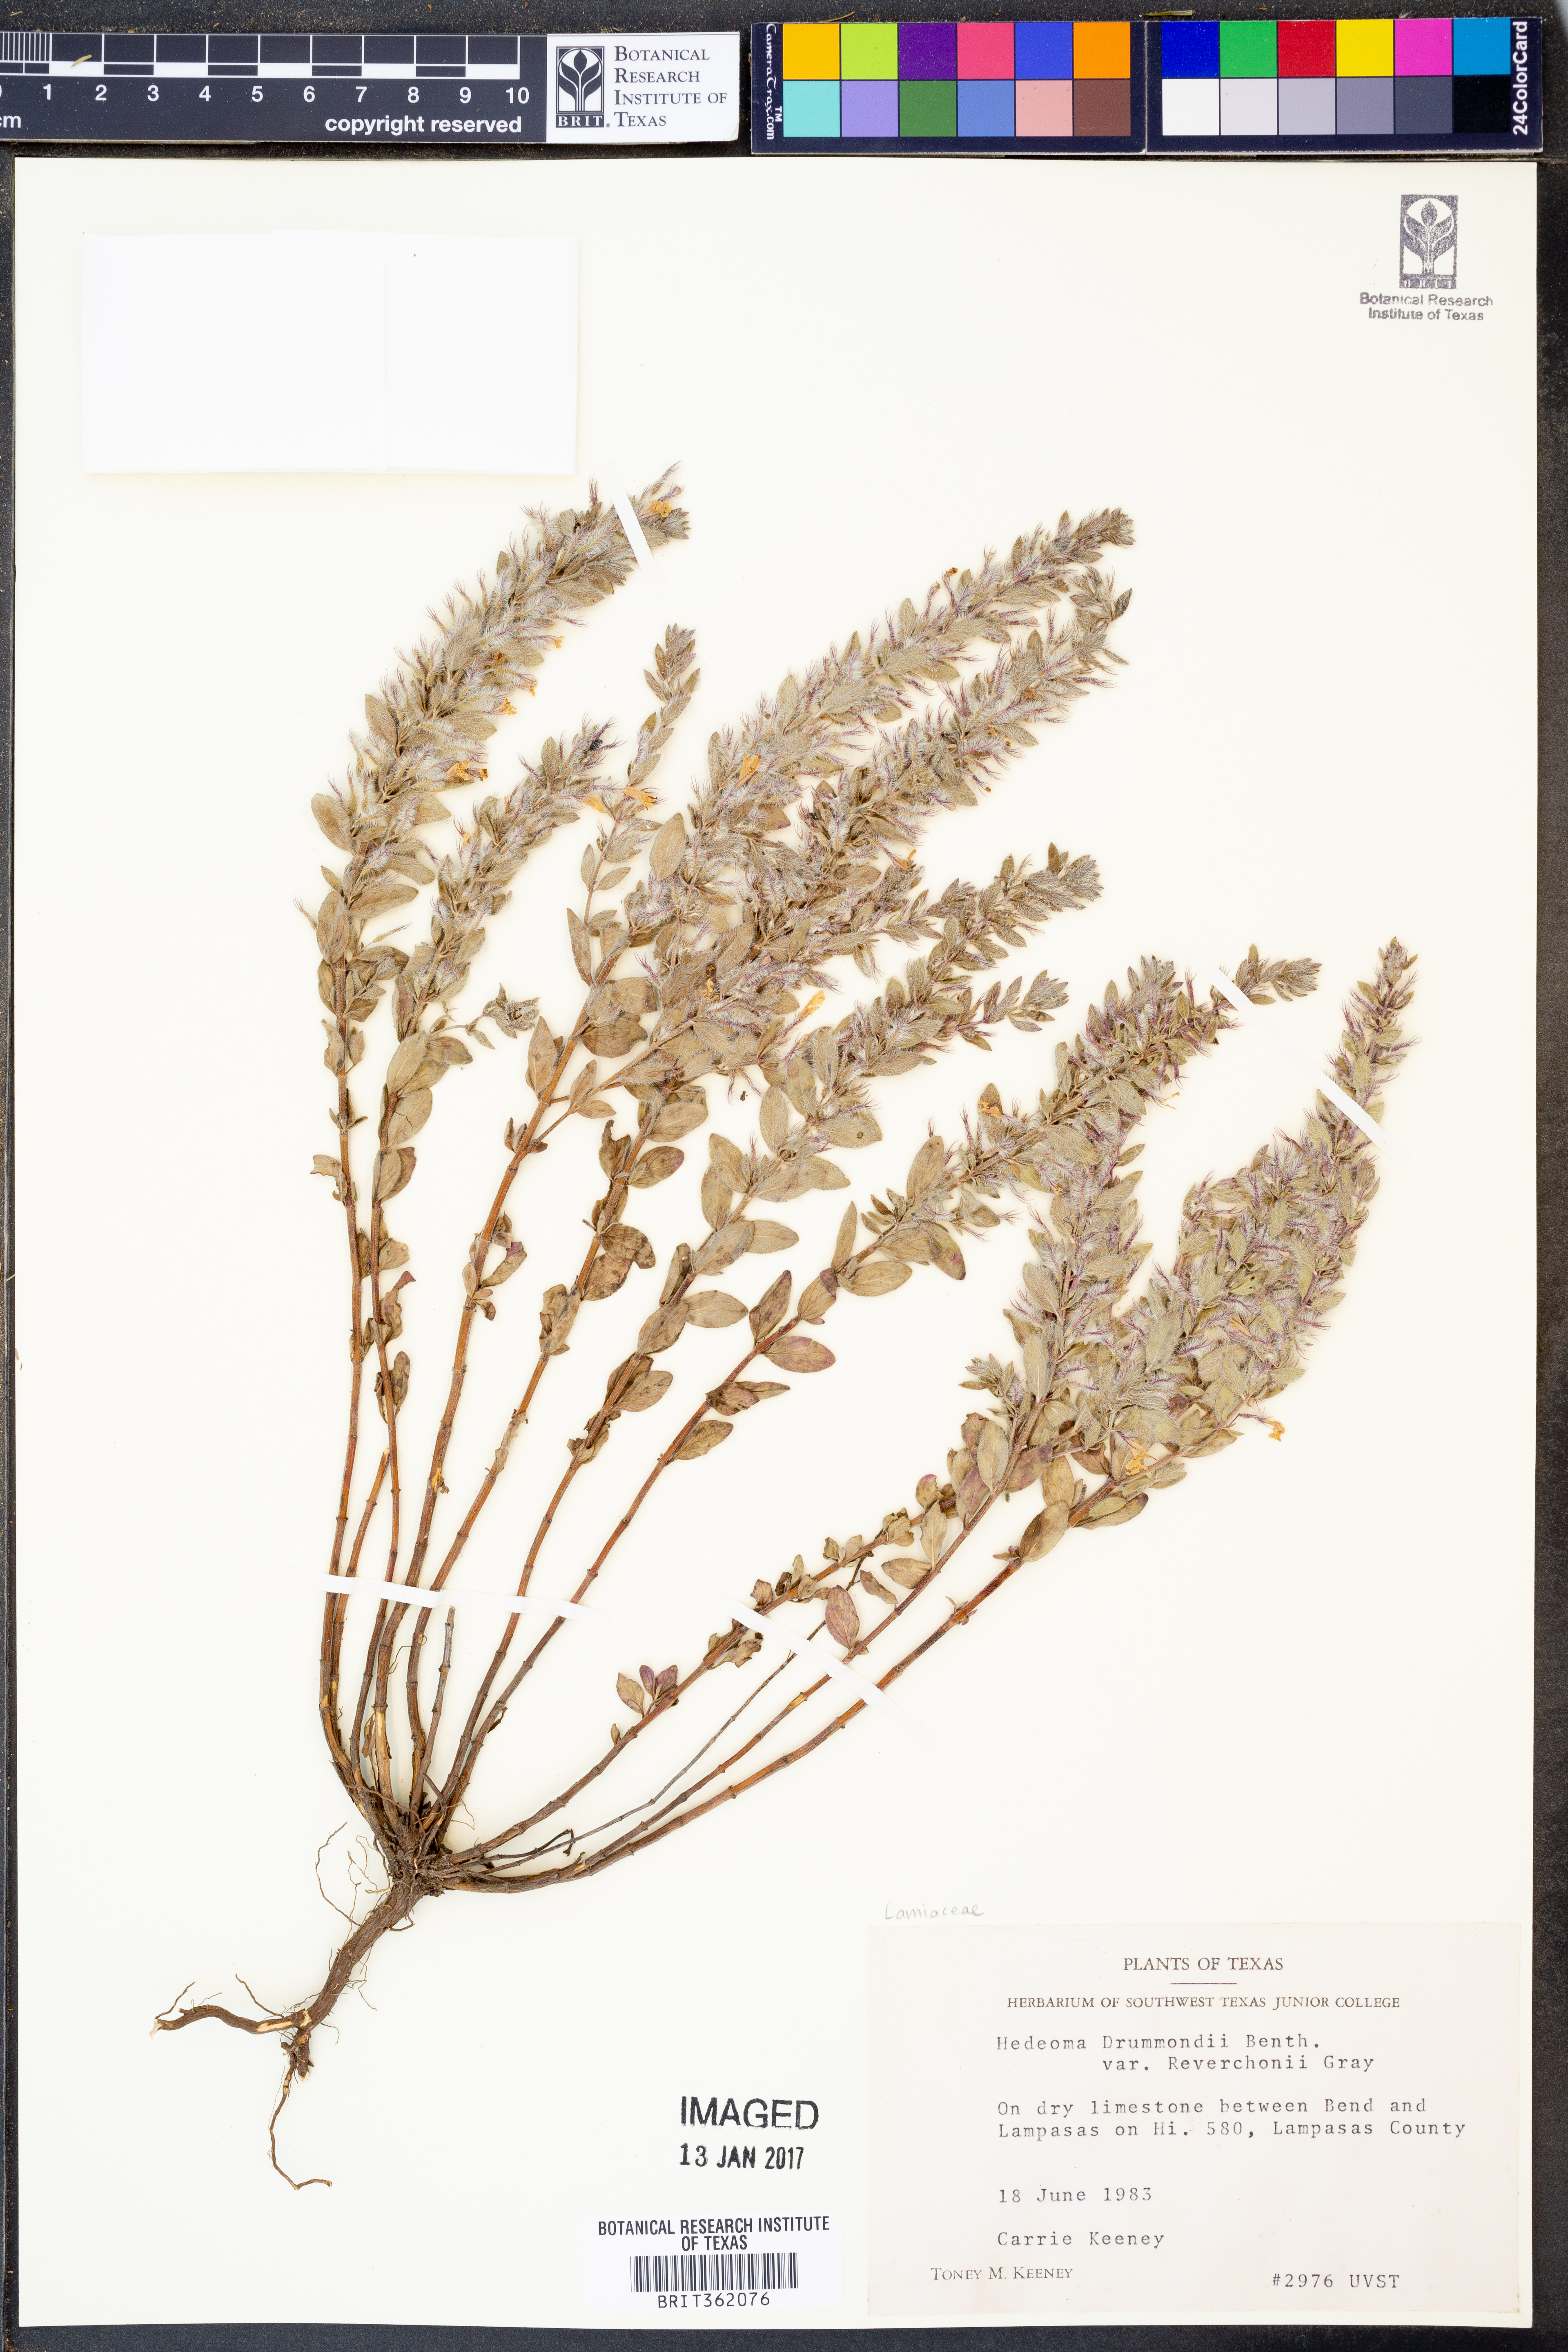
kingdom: Plantae
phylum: Tracheophyta
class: Magnoliopsida
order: Lamiales
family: Lamiaceae
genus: Hedeoma
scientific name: Hedeoma reverchonii
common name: Reverchon's false penny-royal
